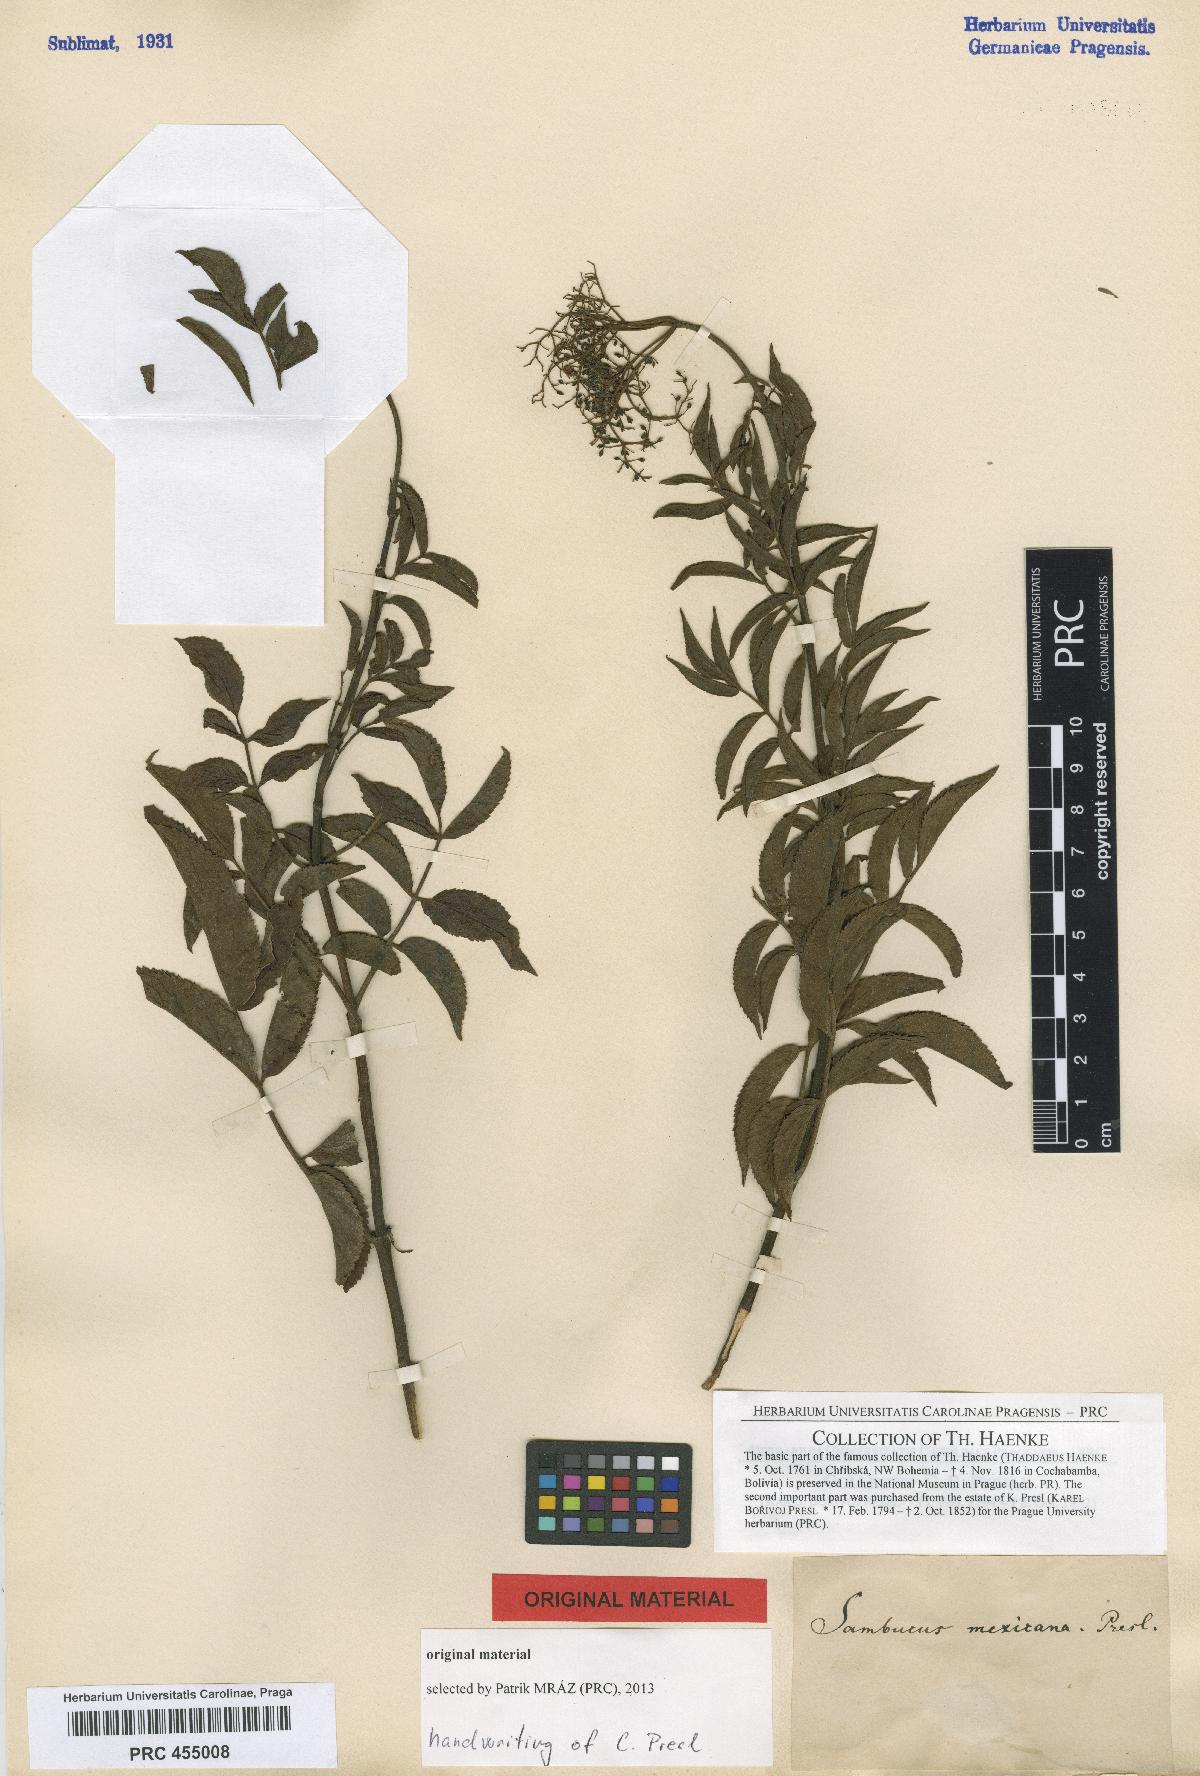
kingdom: Plantae
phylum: Tracheophyta
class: Magnoliopsida
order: Dipsacales
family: Viburnaceae
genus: Sambucus
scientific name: Sambucus mexicana
